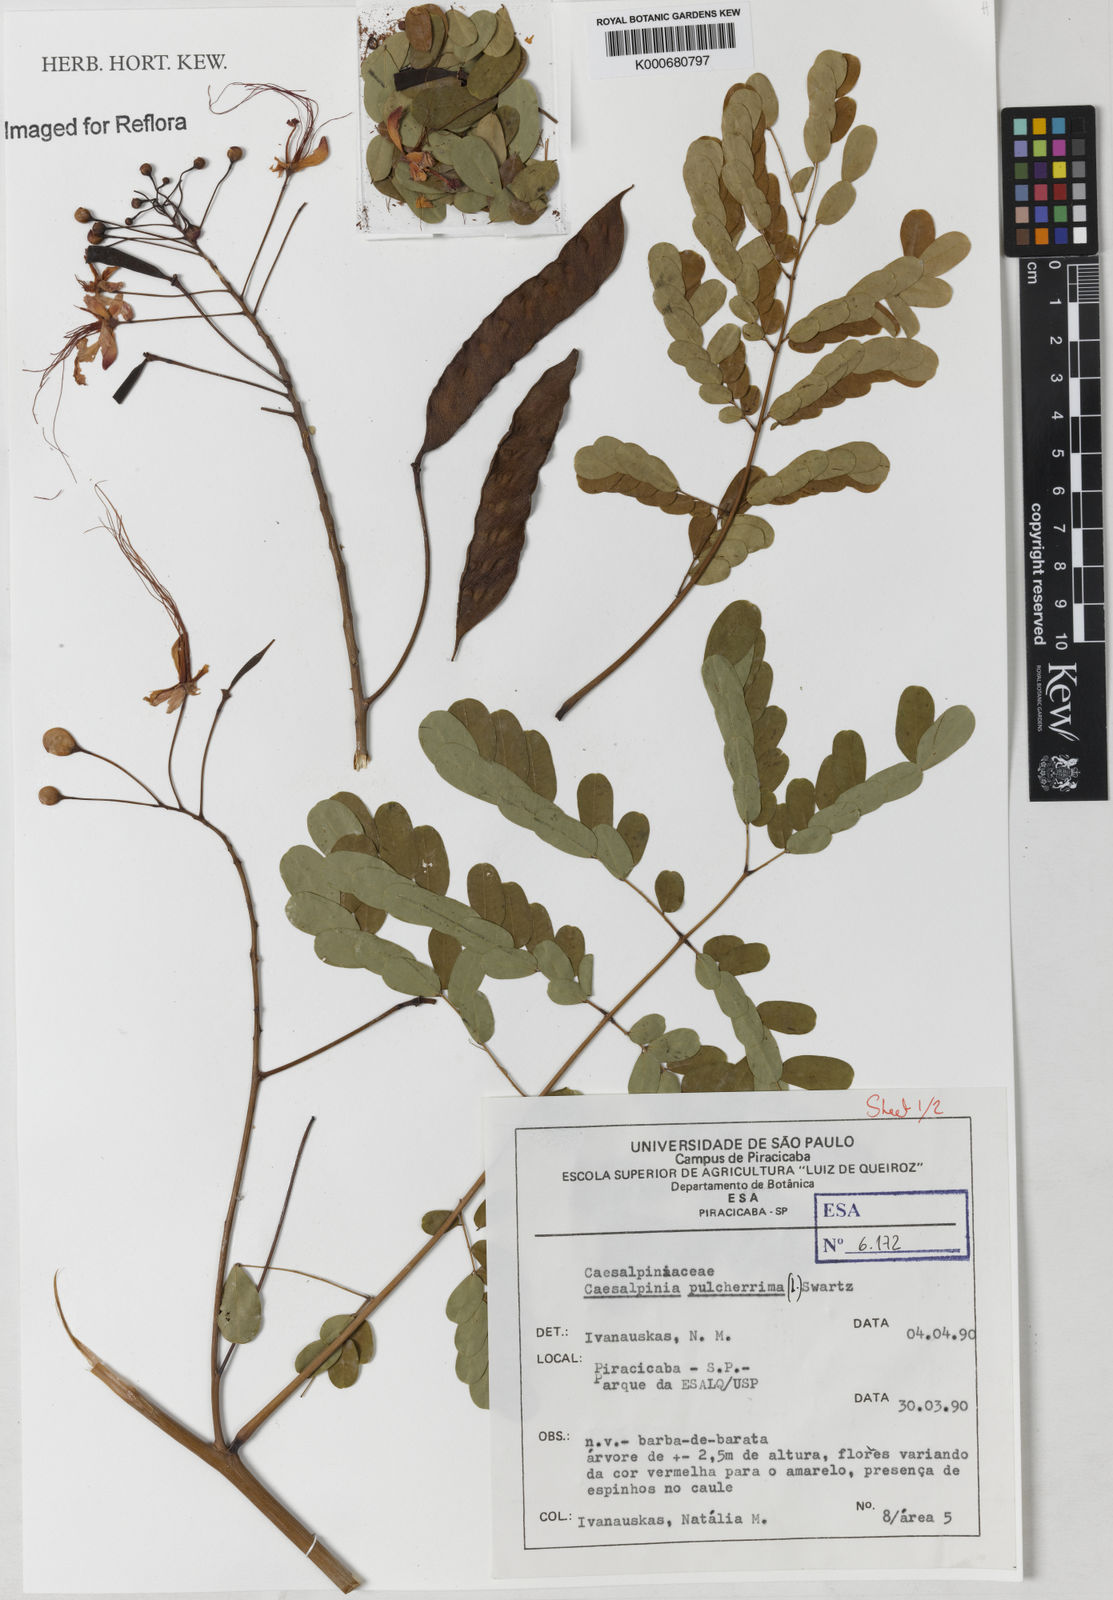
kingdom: Plantae
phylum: Tracheophyta
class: Magnoliopsida
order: Fabales
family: Fabaceae
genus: Caesalpinia
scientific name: Caesalpinia pulcherrima
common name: Pride-of-barbados
